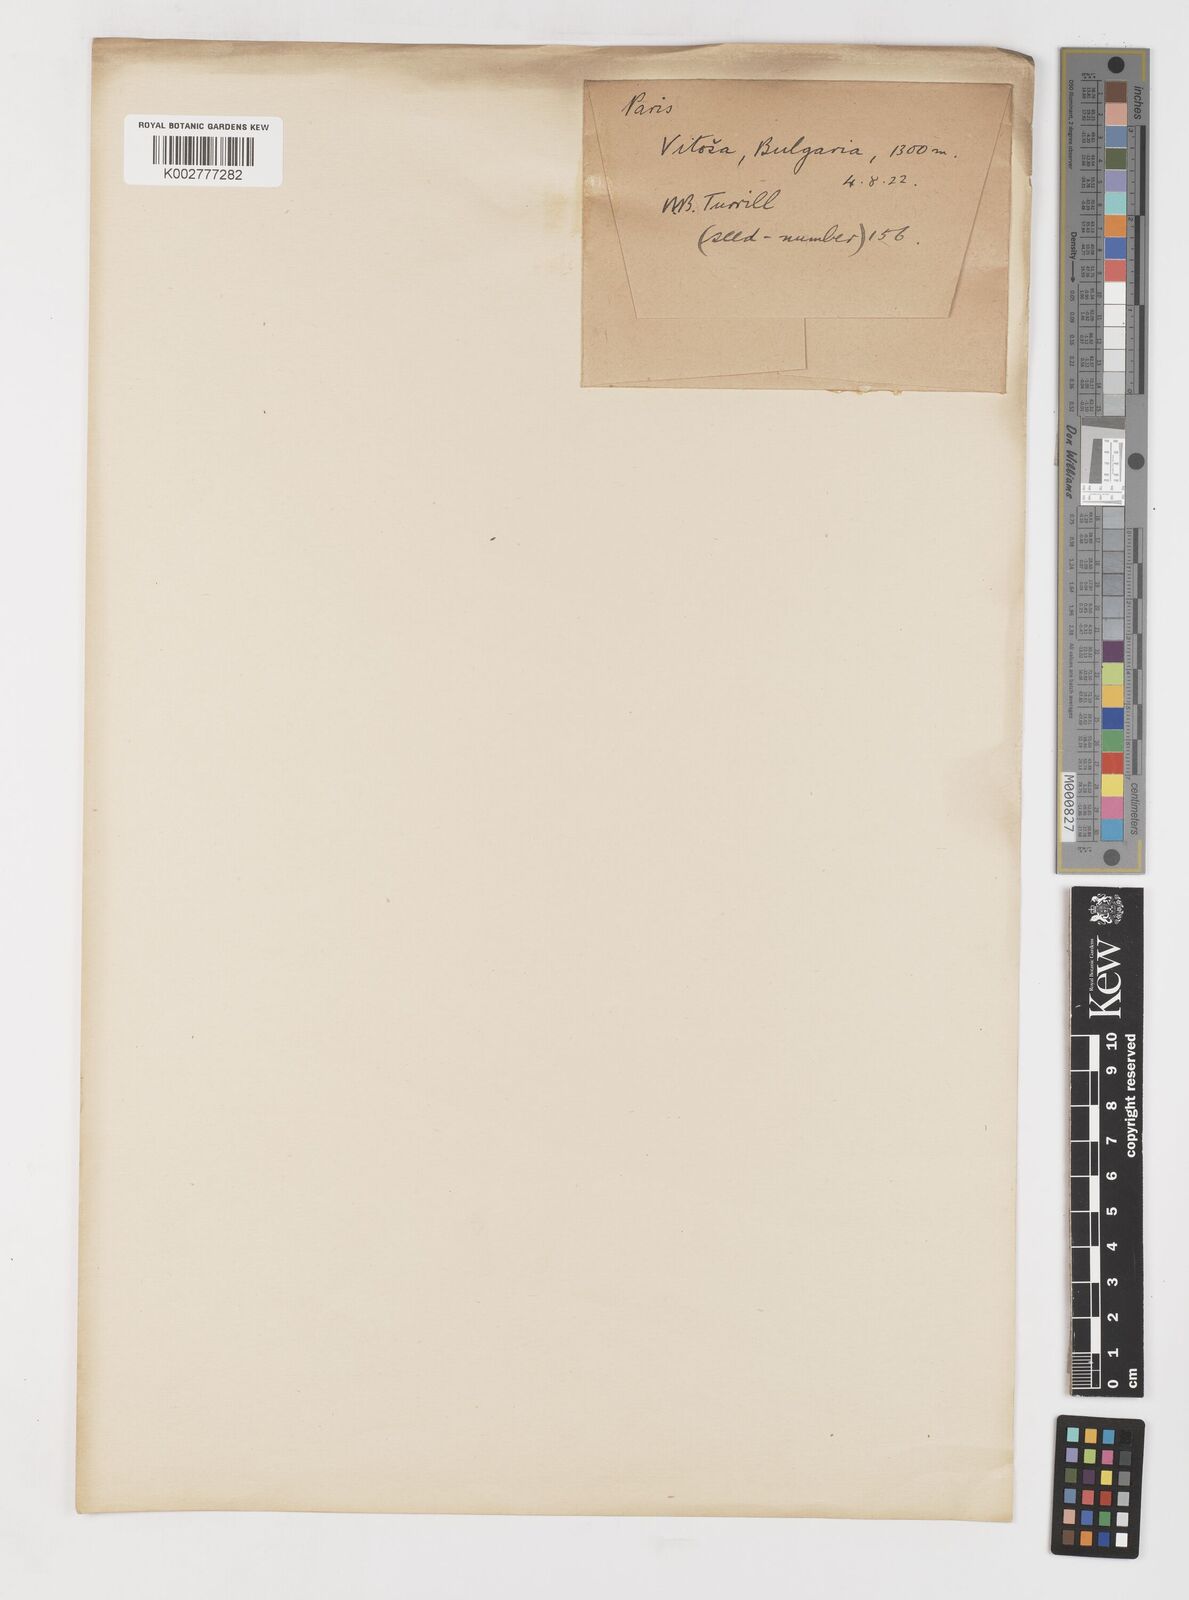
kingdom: Plantae
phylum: Tracheophyta
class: Liliopsida
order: Liliales
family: Melanthiaceae
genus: Paris
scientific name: Paris quadrifolia
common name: Herb-paris
